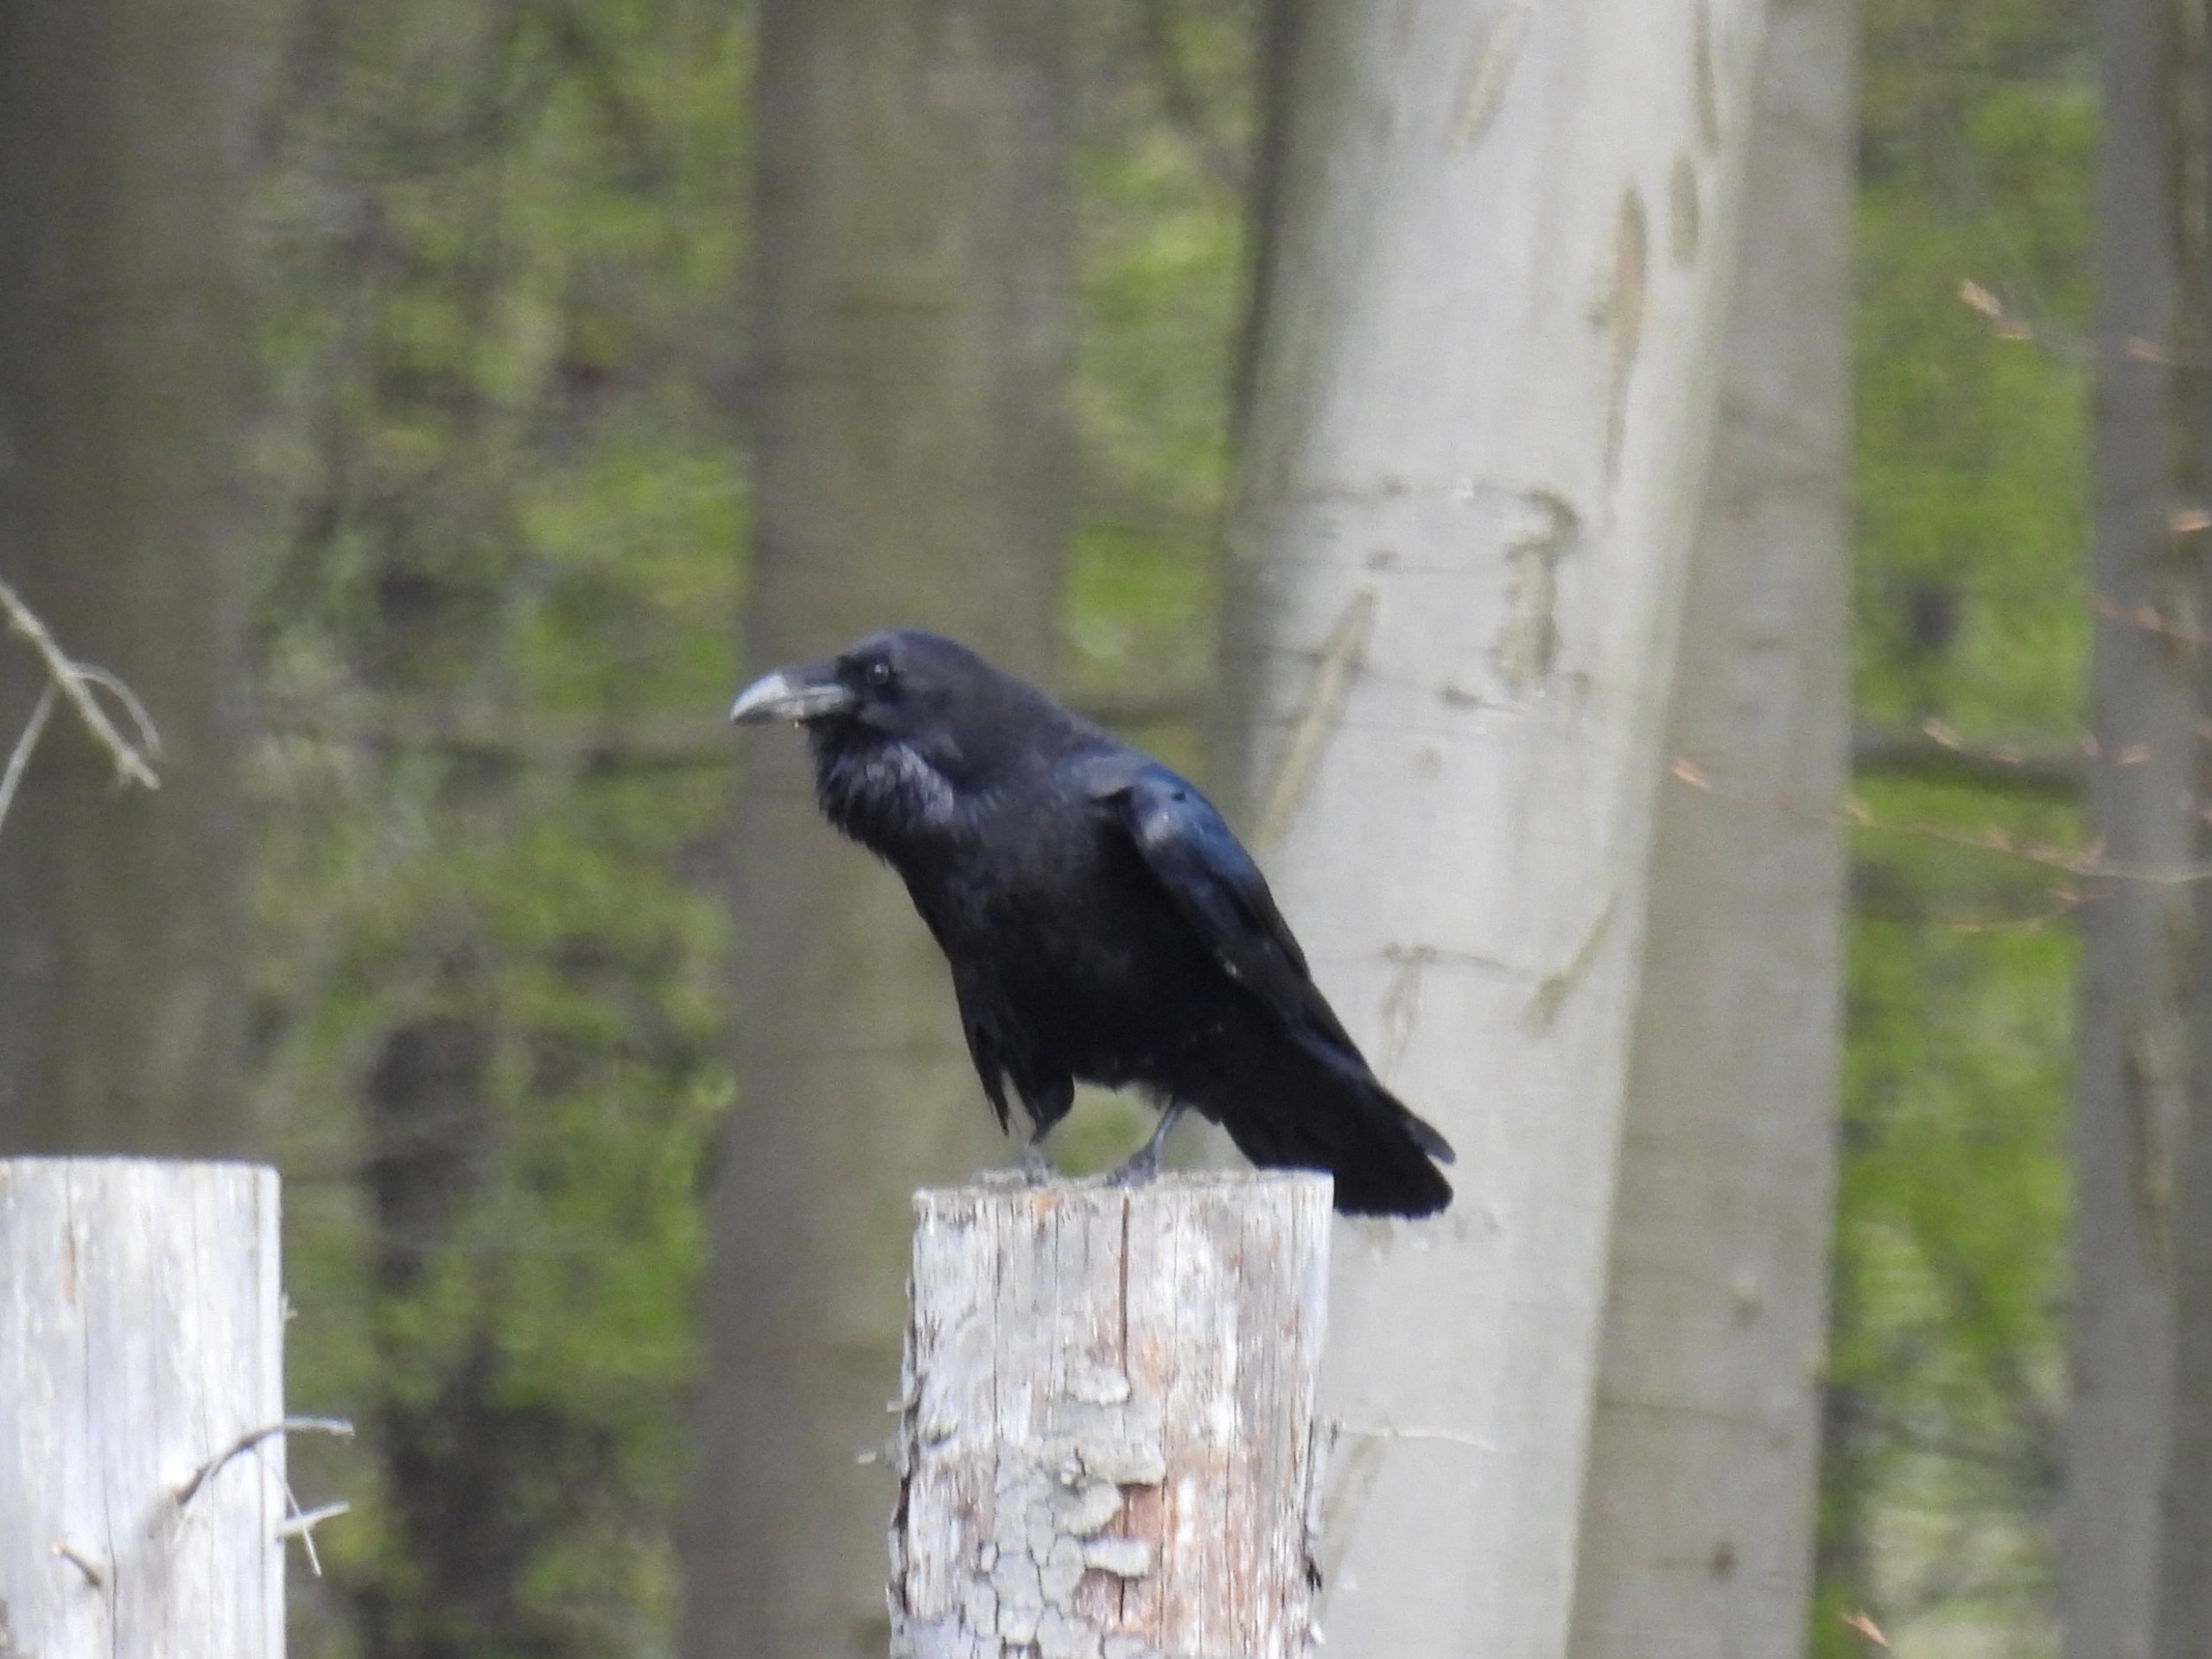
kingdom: Animalia
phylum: Chordata
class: Aves
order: Passeriformes
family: Corvidae
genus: Corvus
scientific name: Corvus corax
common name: Ravn
